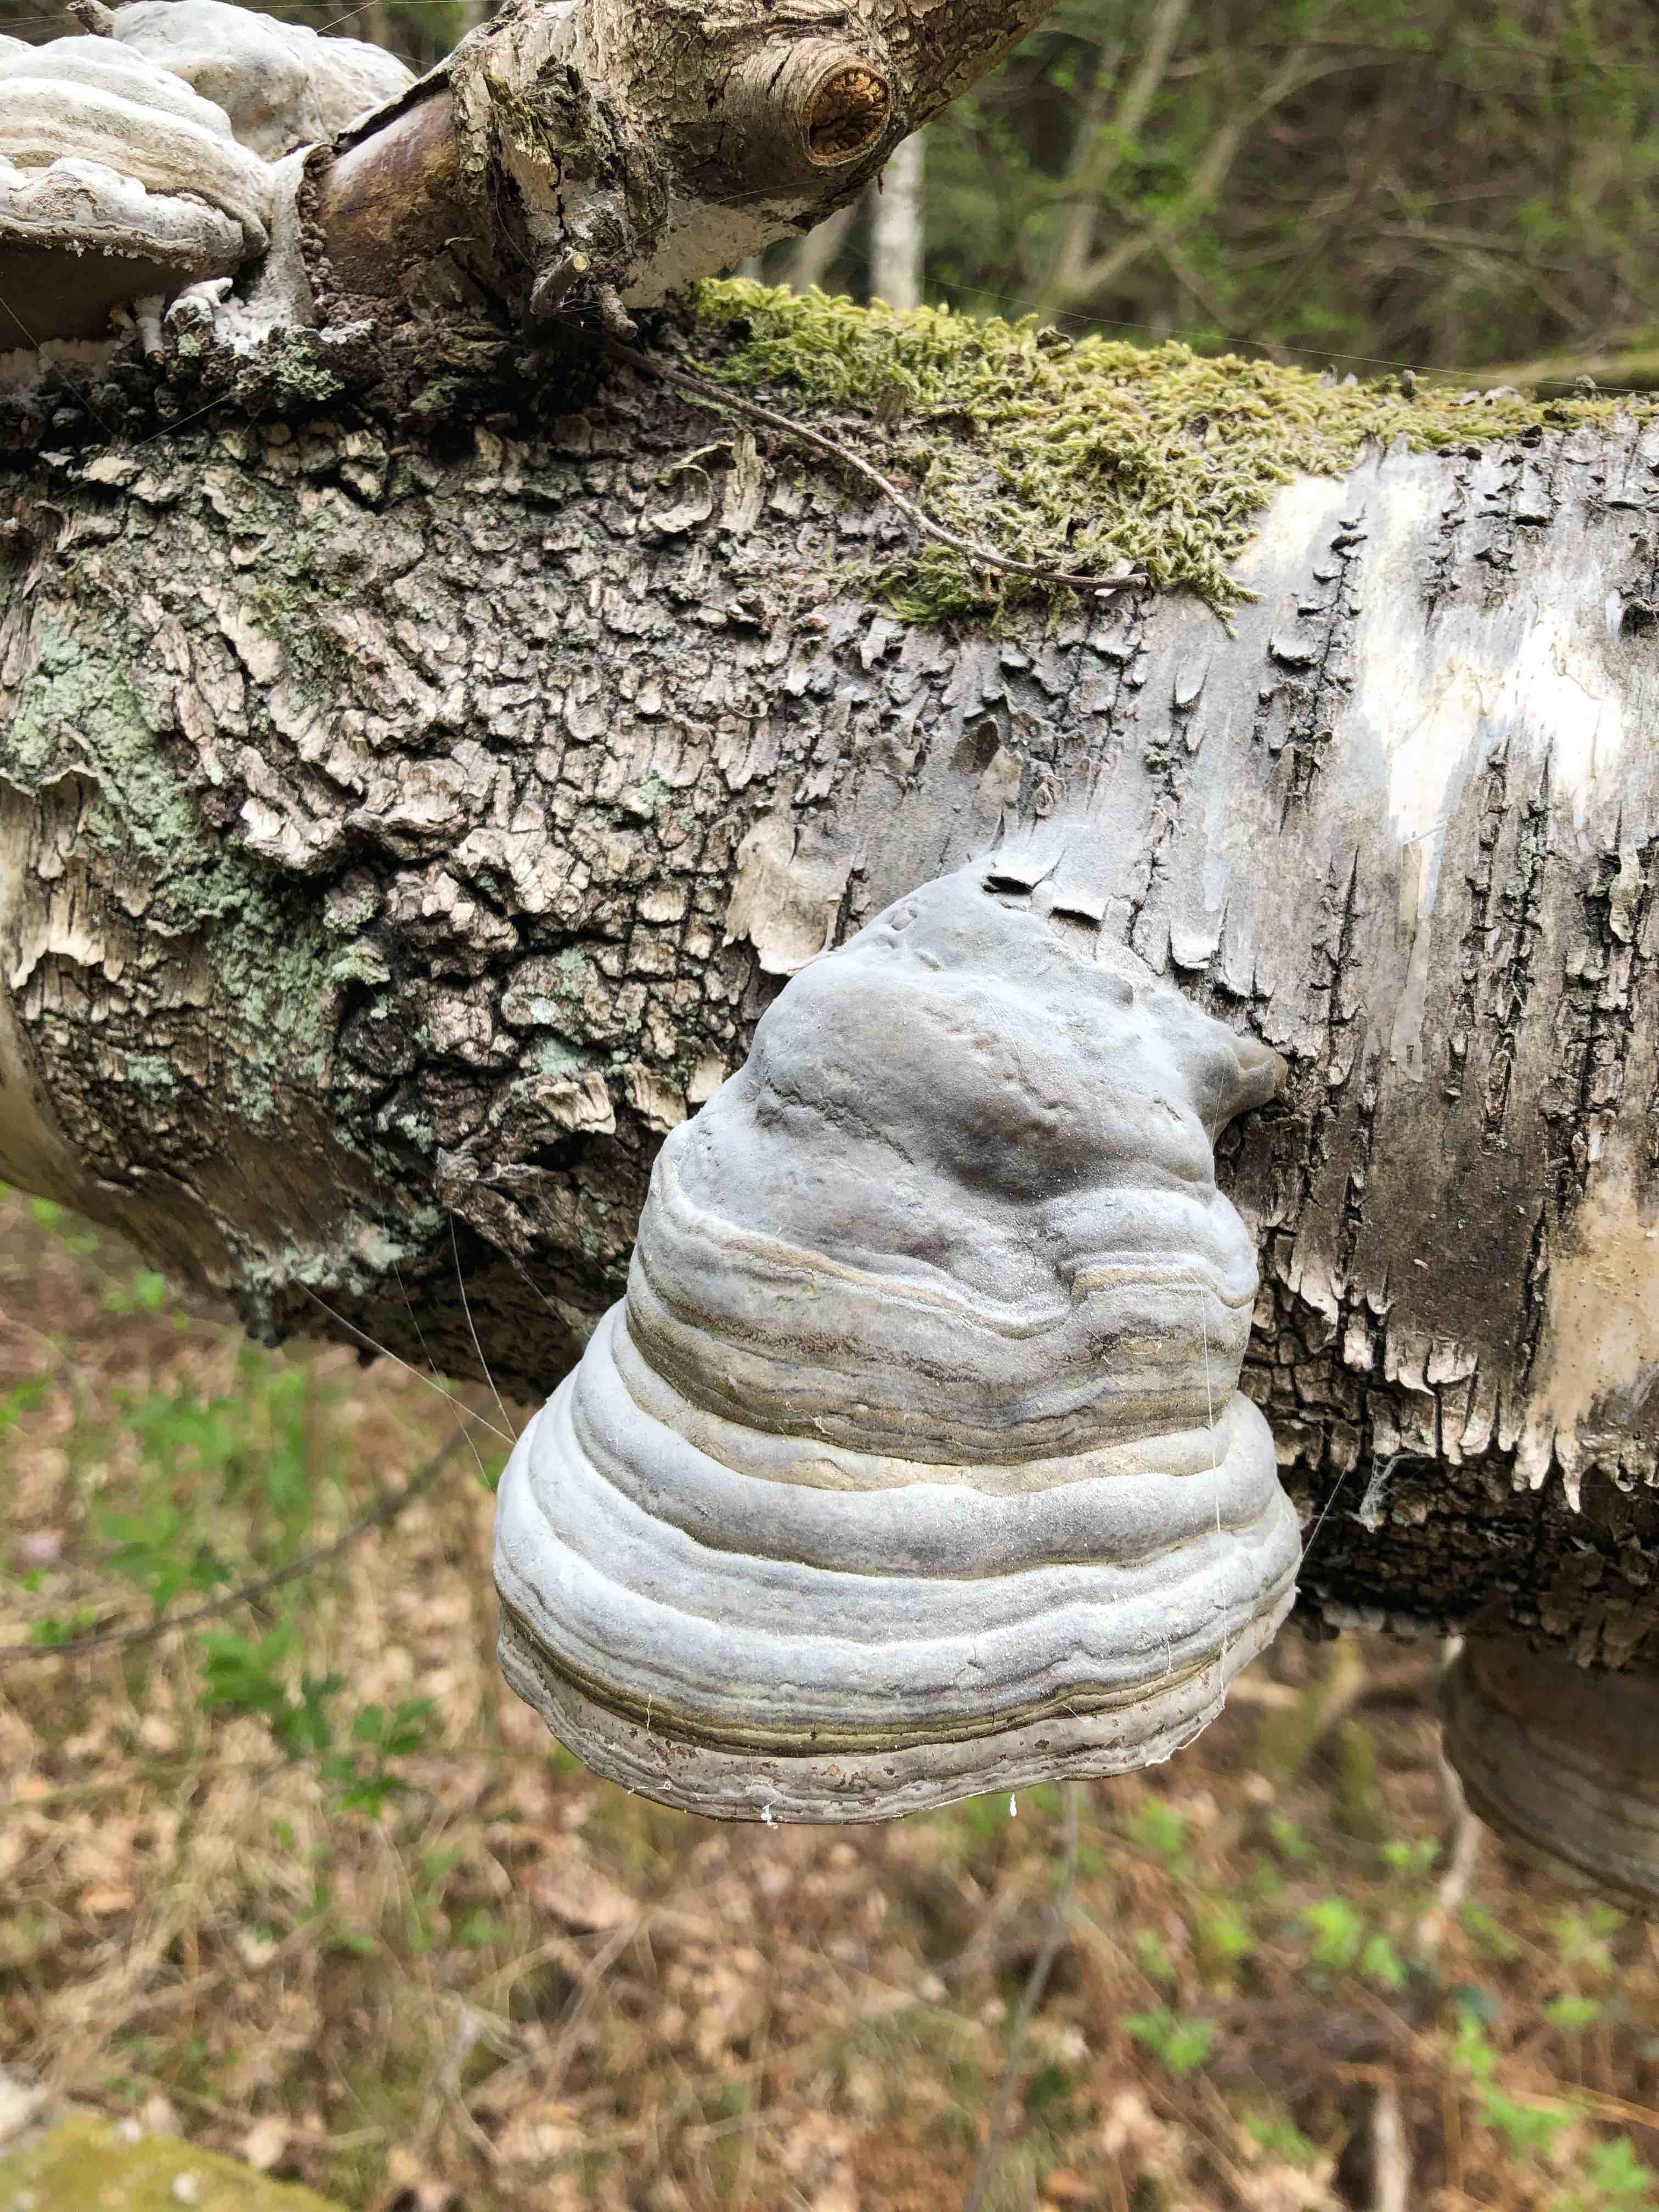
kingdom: Fungi
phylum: Basidiomycota
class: Agaricomycetes
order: Polyporales
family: Polyporaceae
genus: Fomes
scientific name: Fomes fomentarius
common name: tøndersvamp
